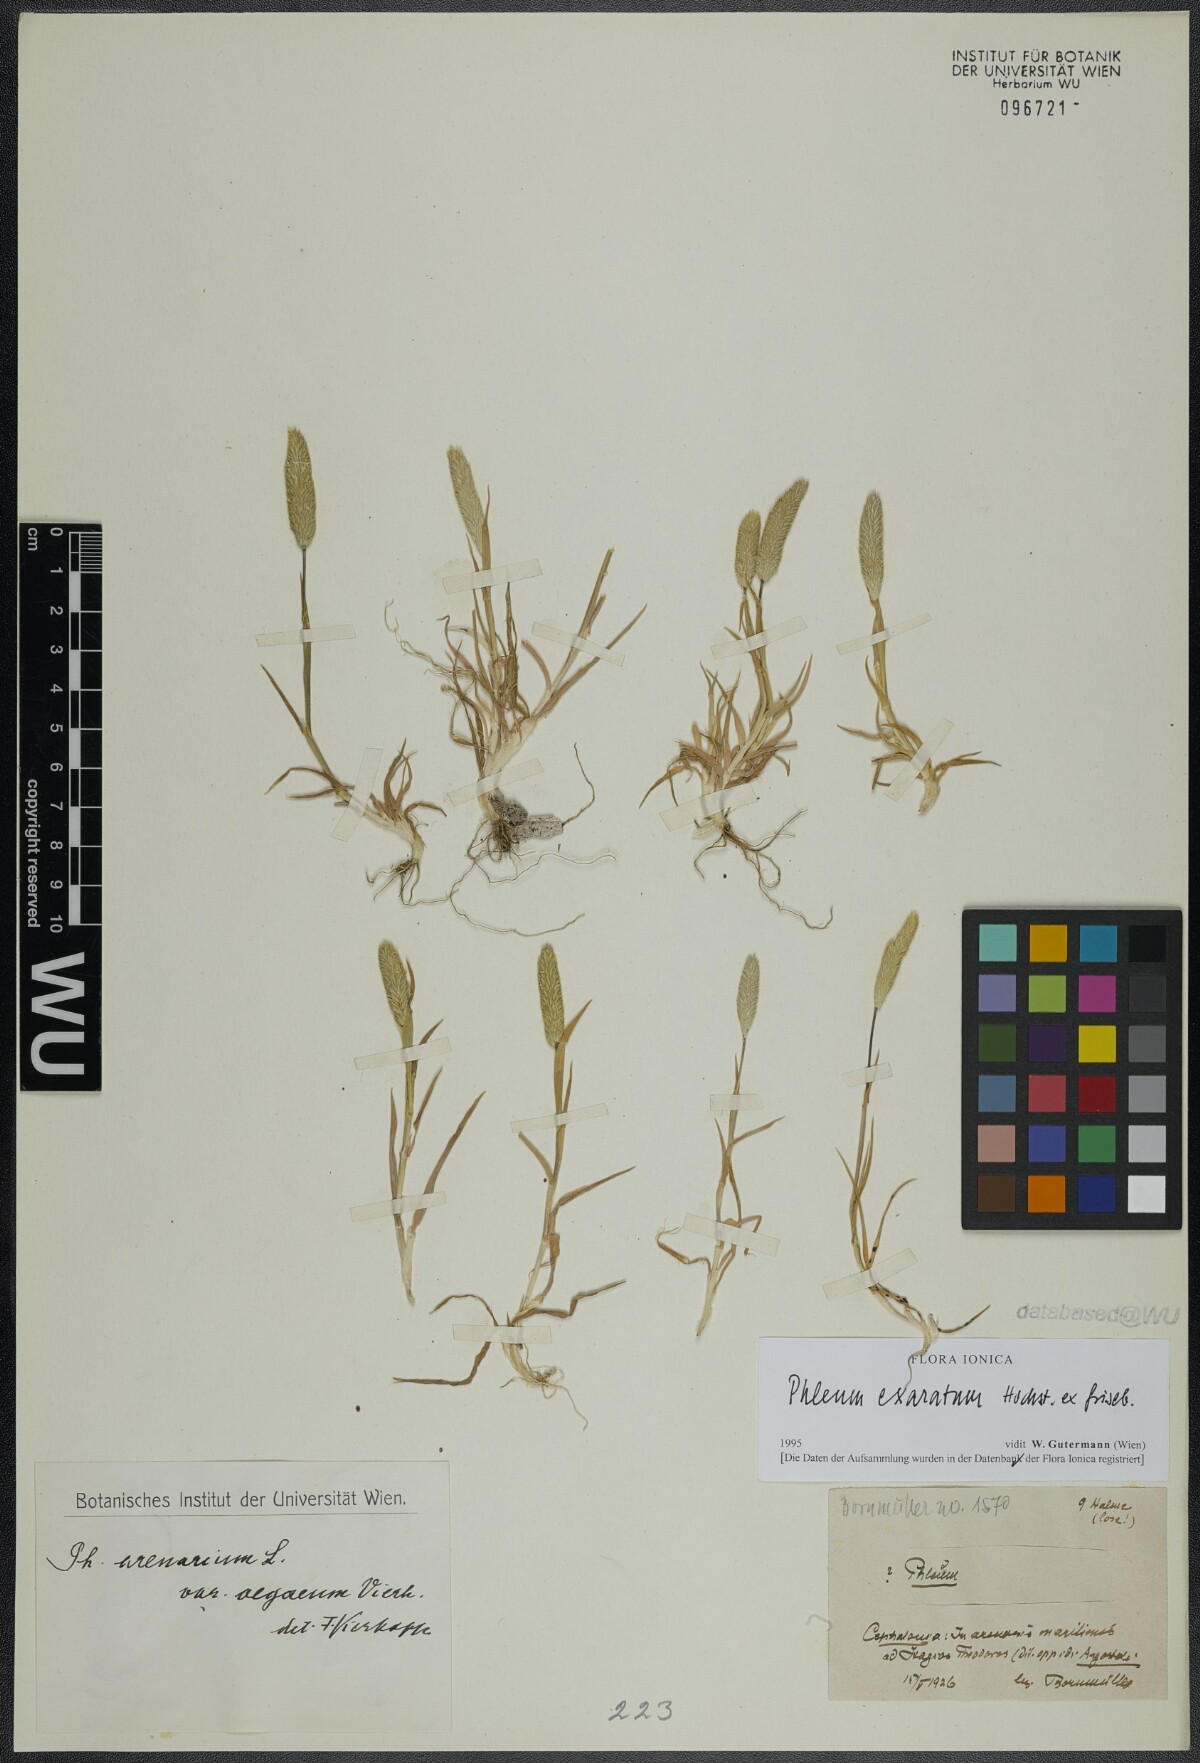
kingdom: Plantae
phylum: Tracheophyta
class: Liliopsida
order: Poales
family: Poaceae
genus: Phleum
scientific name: Phleum exaratum
